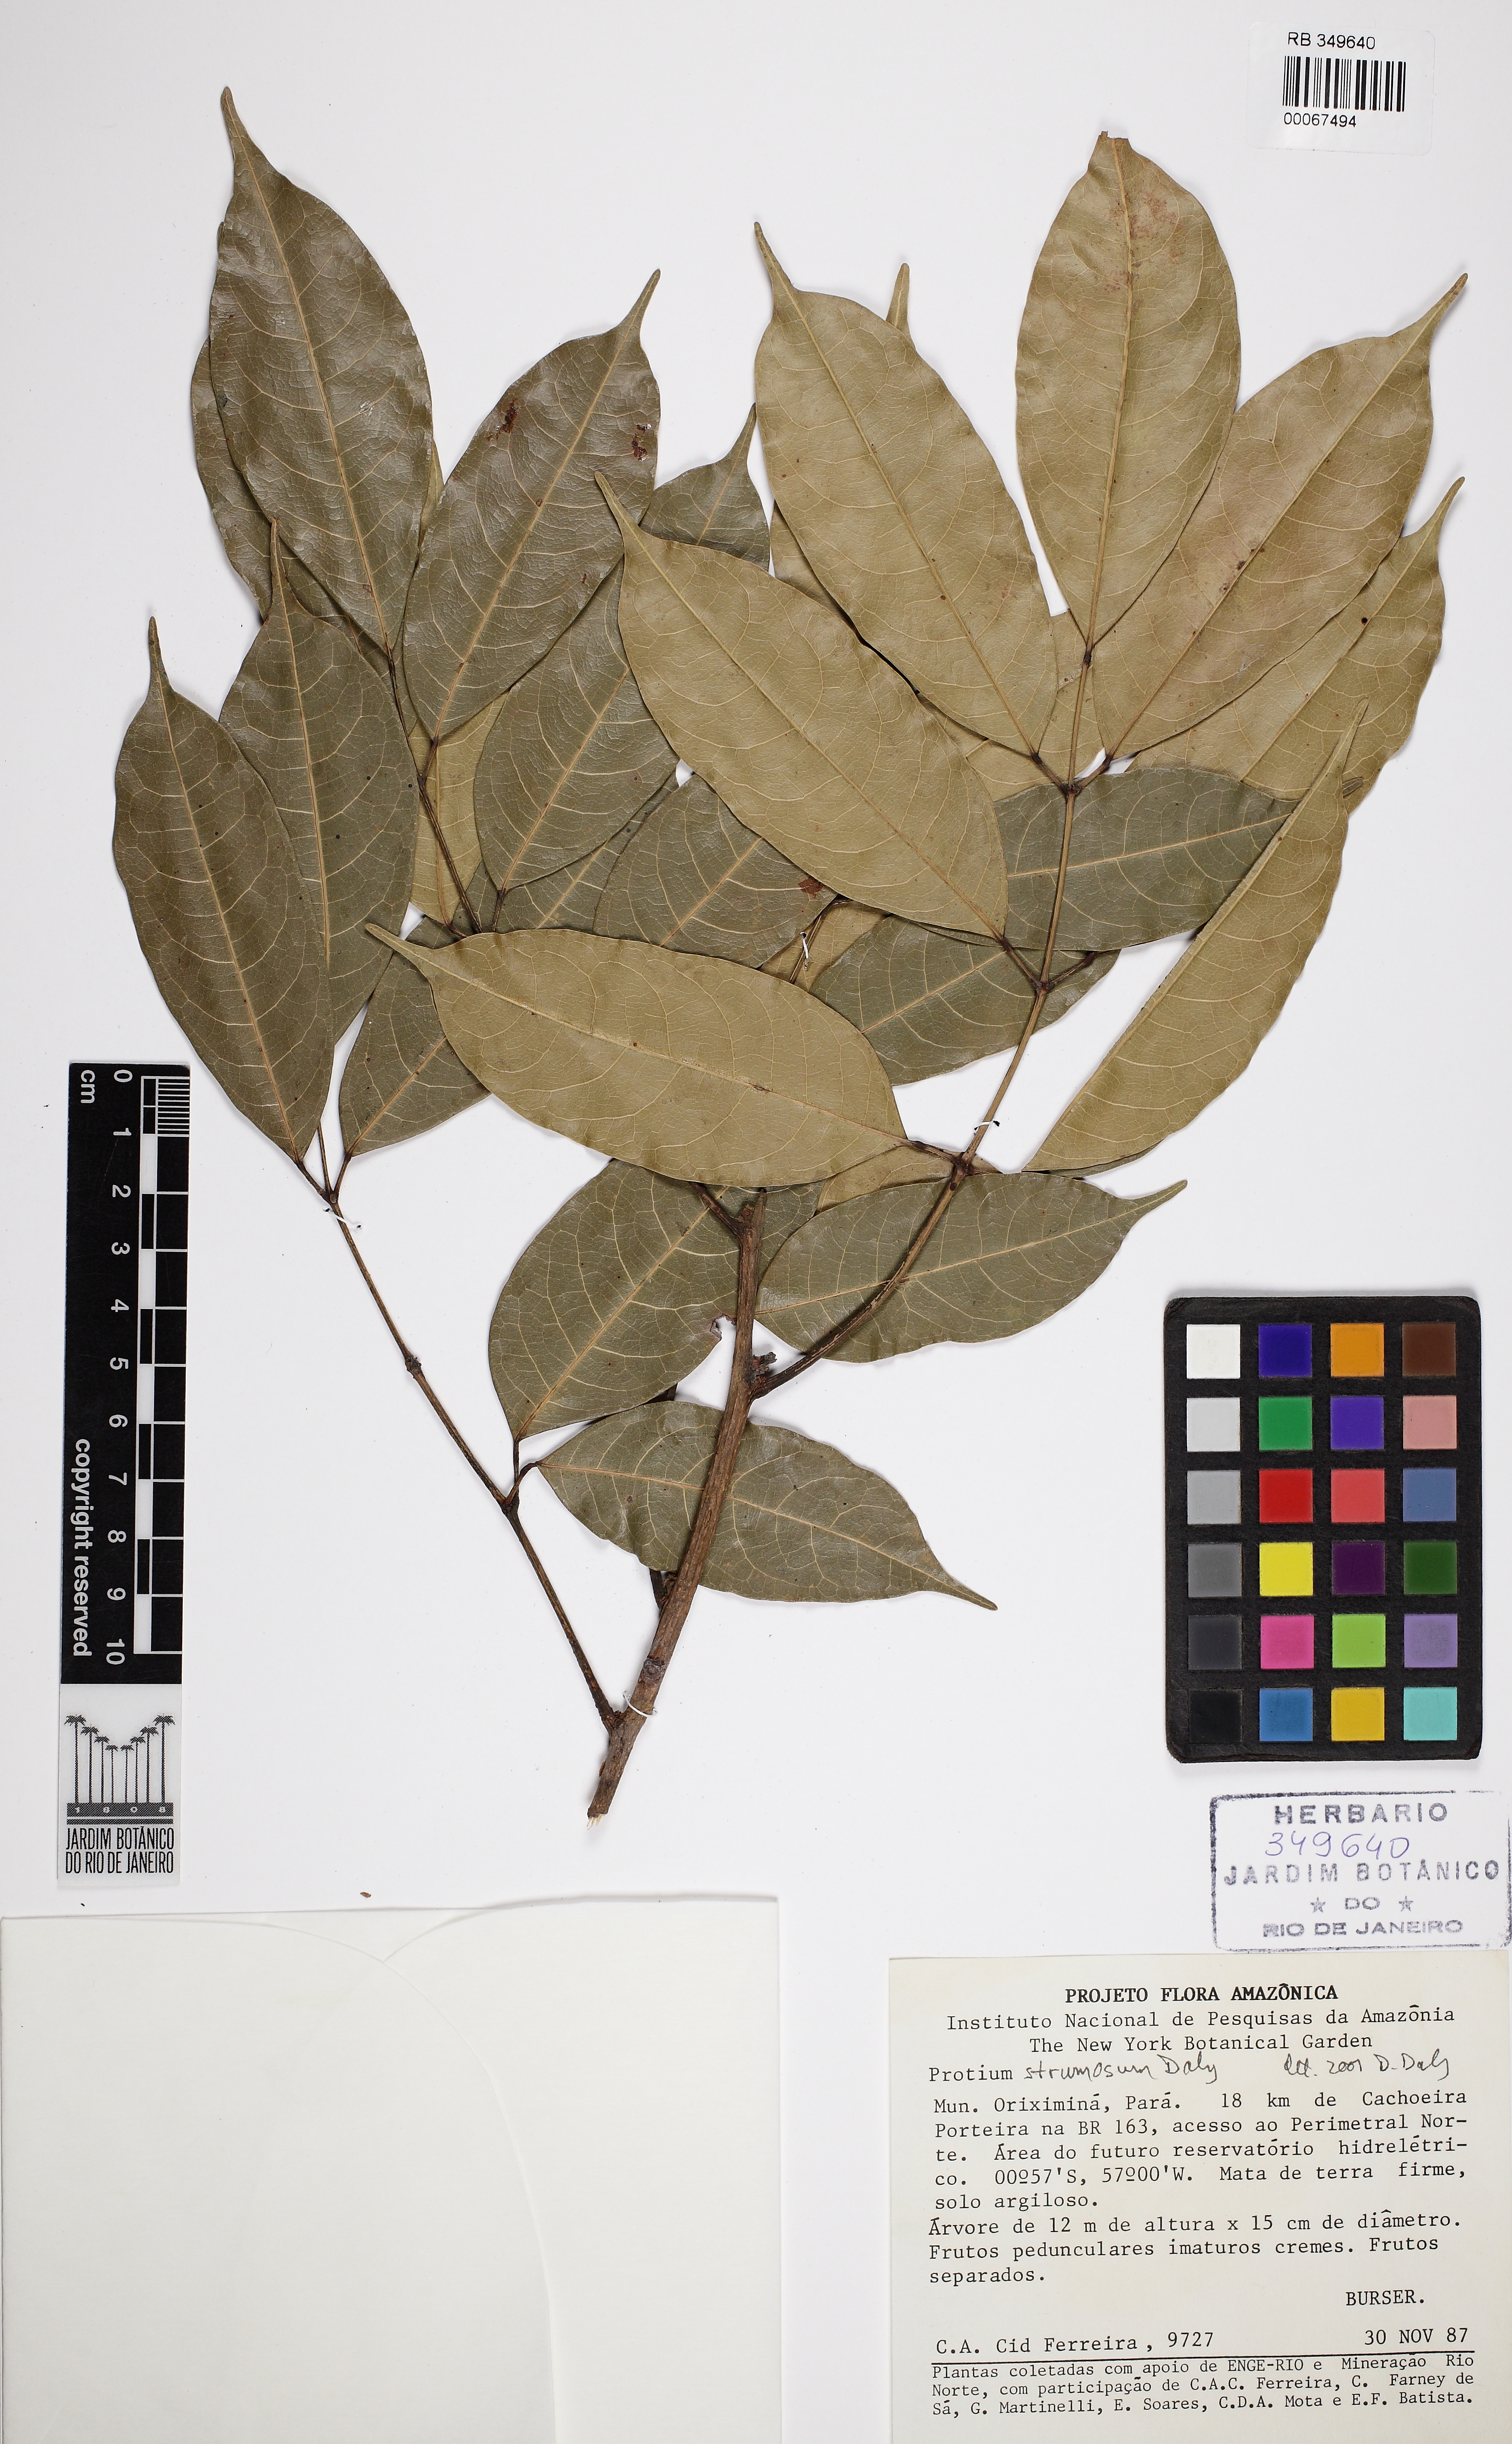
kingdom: Plantae
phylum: Tracheophyta
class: Magnoliopsida
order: Sapindales
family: Burseraceae
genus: Protium
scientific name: Protium strumosum
